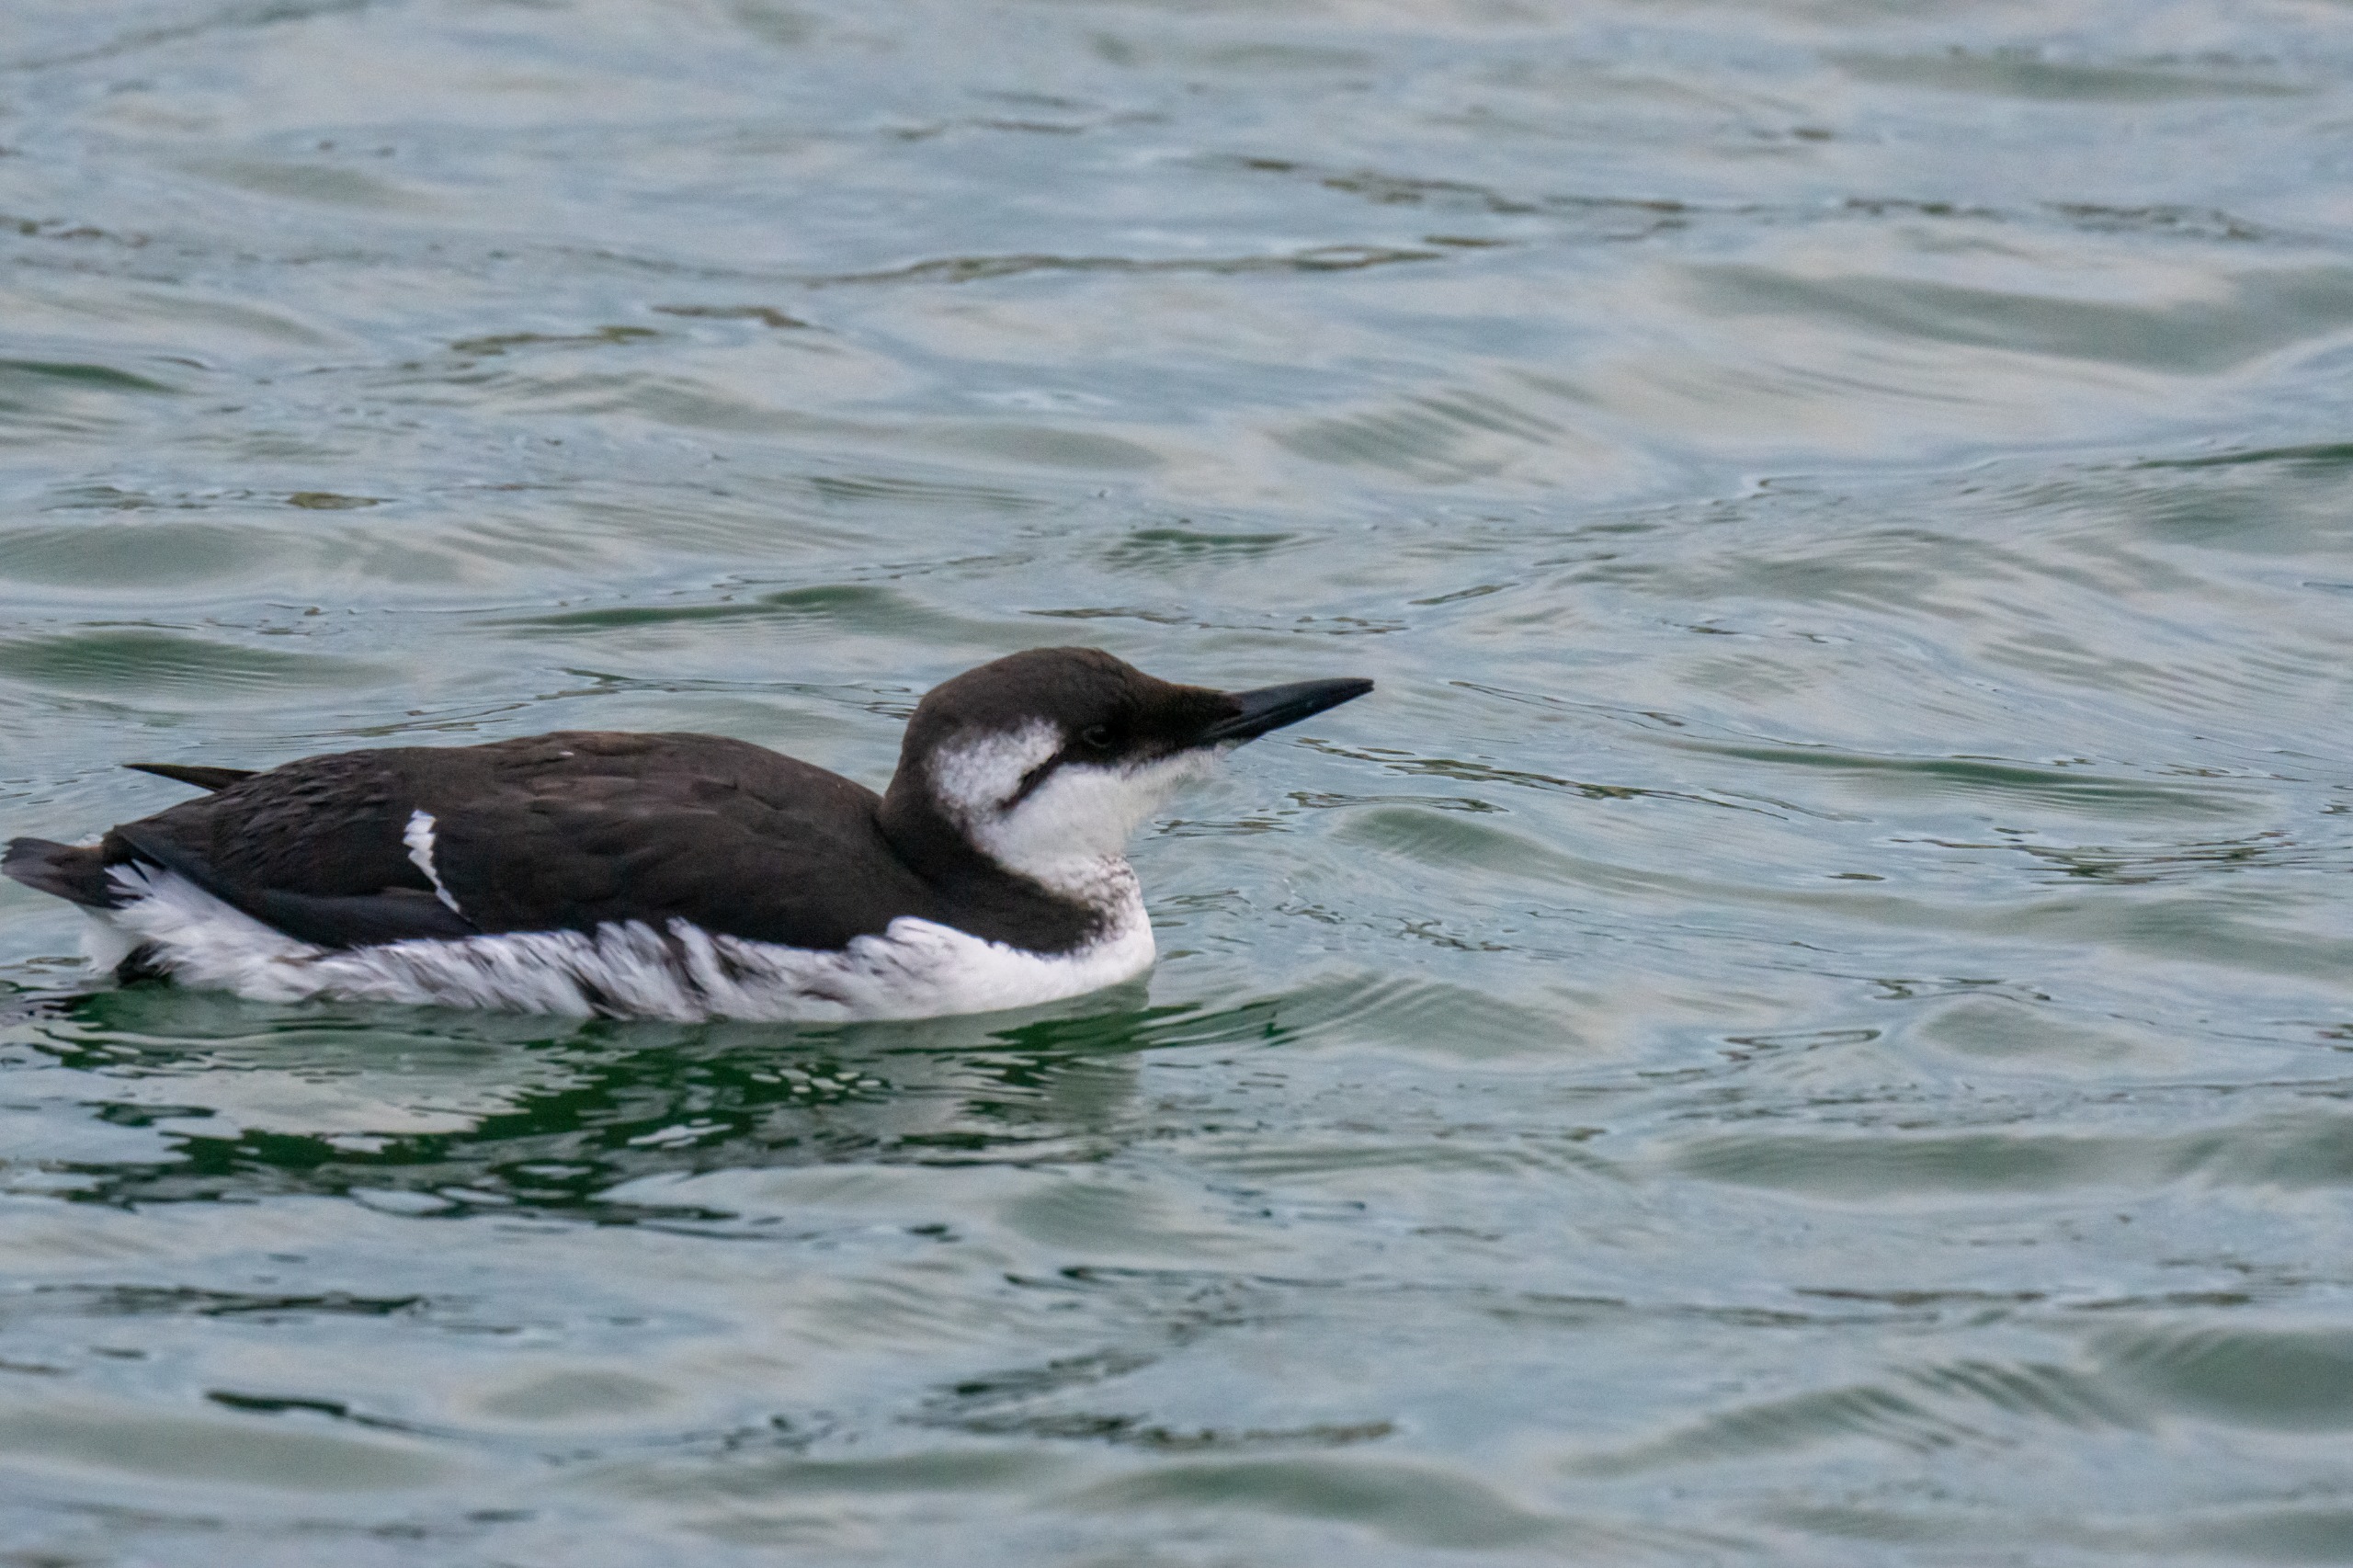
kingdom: Animalia
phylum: Chordata
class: Aves
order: Charadriiformes
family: Alcidae
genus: Uria
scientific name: Uria aalge
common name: Lomvie
